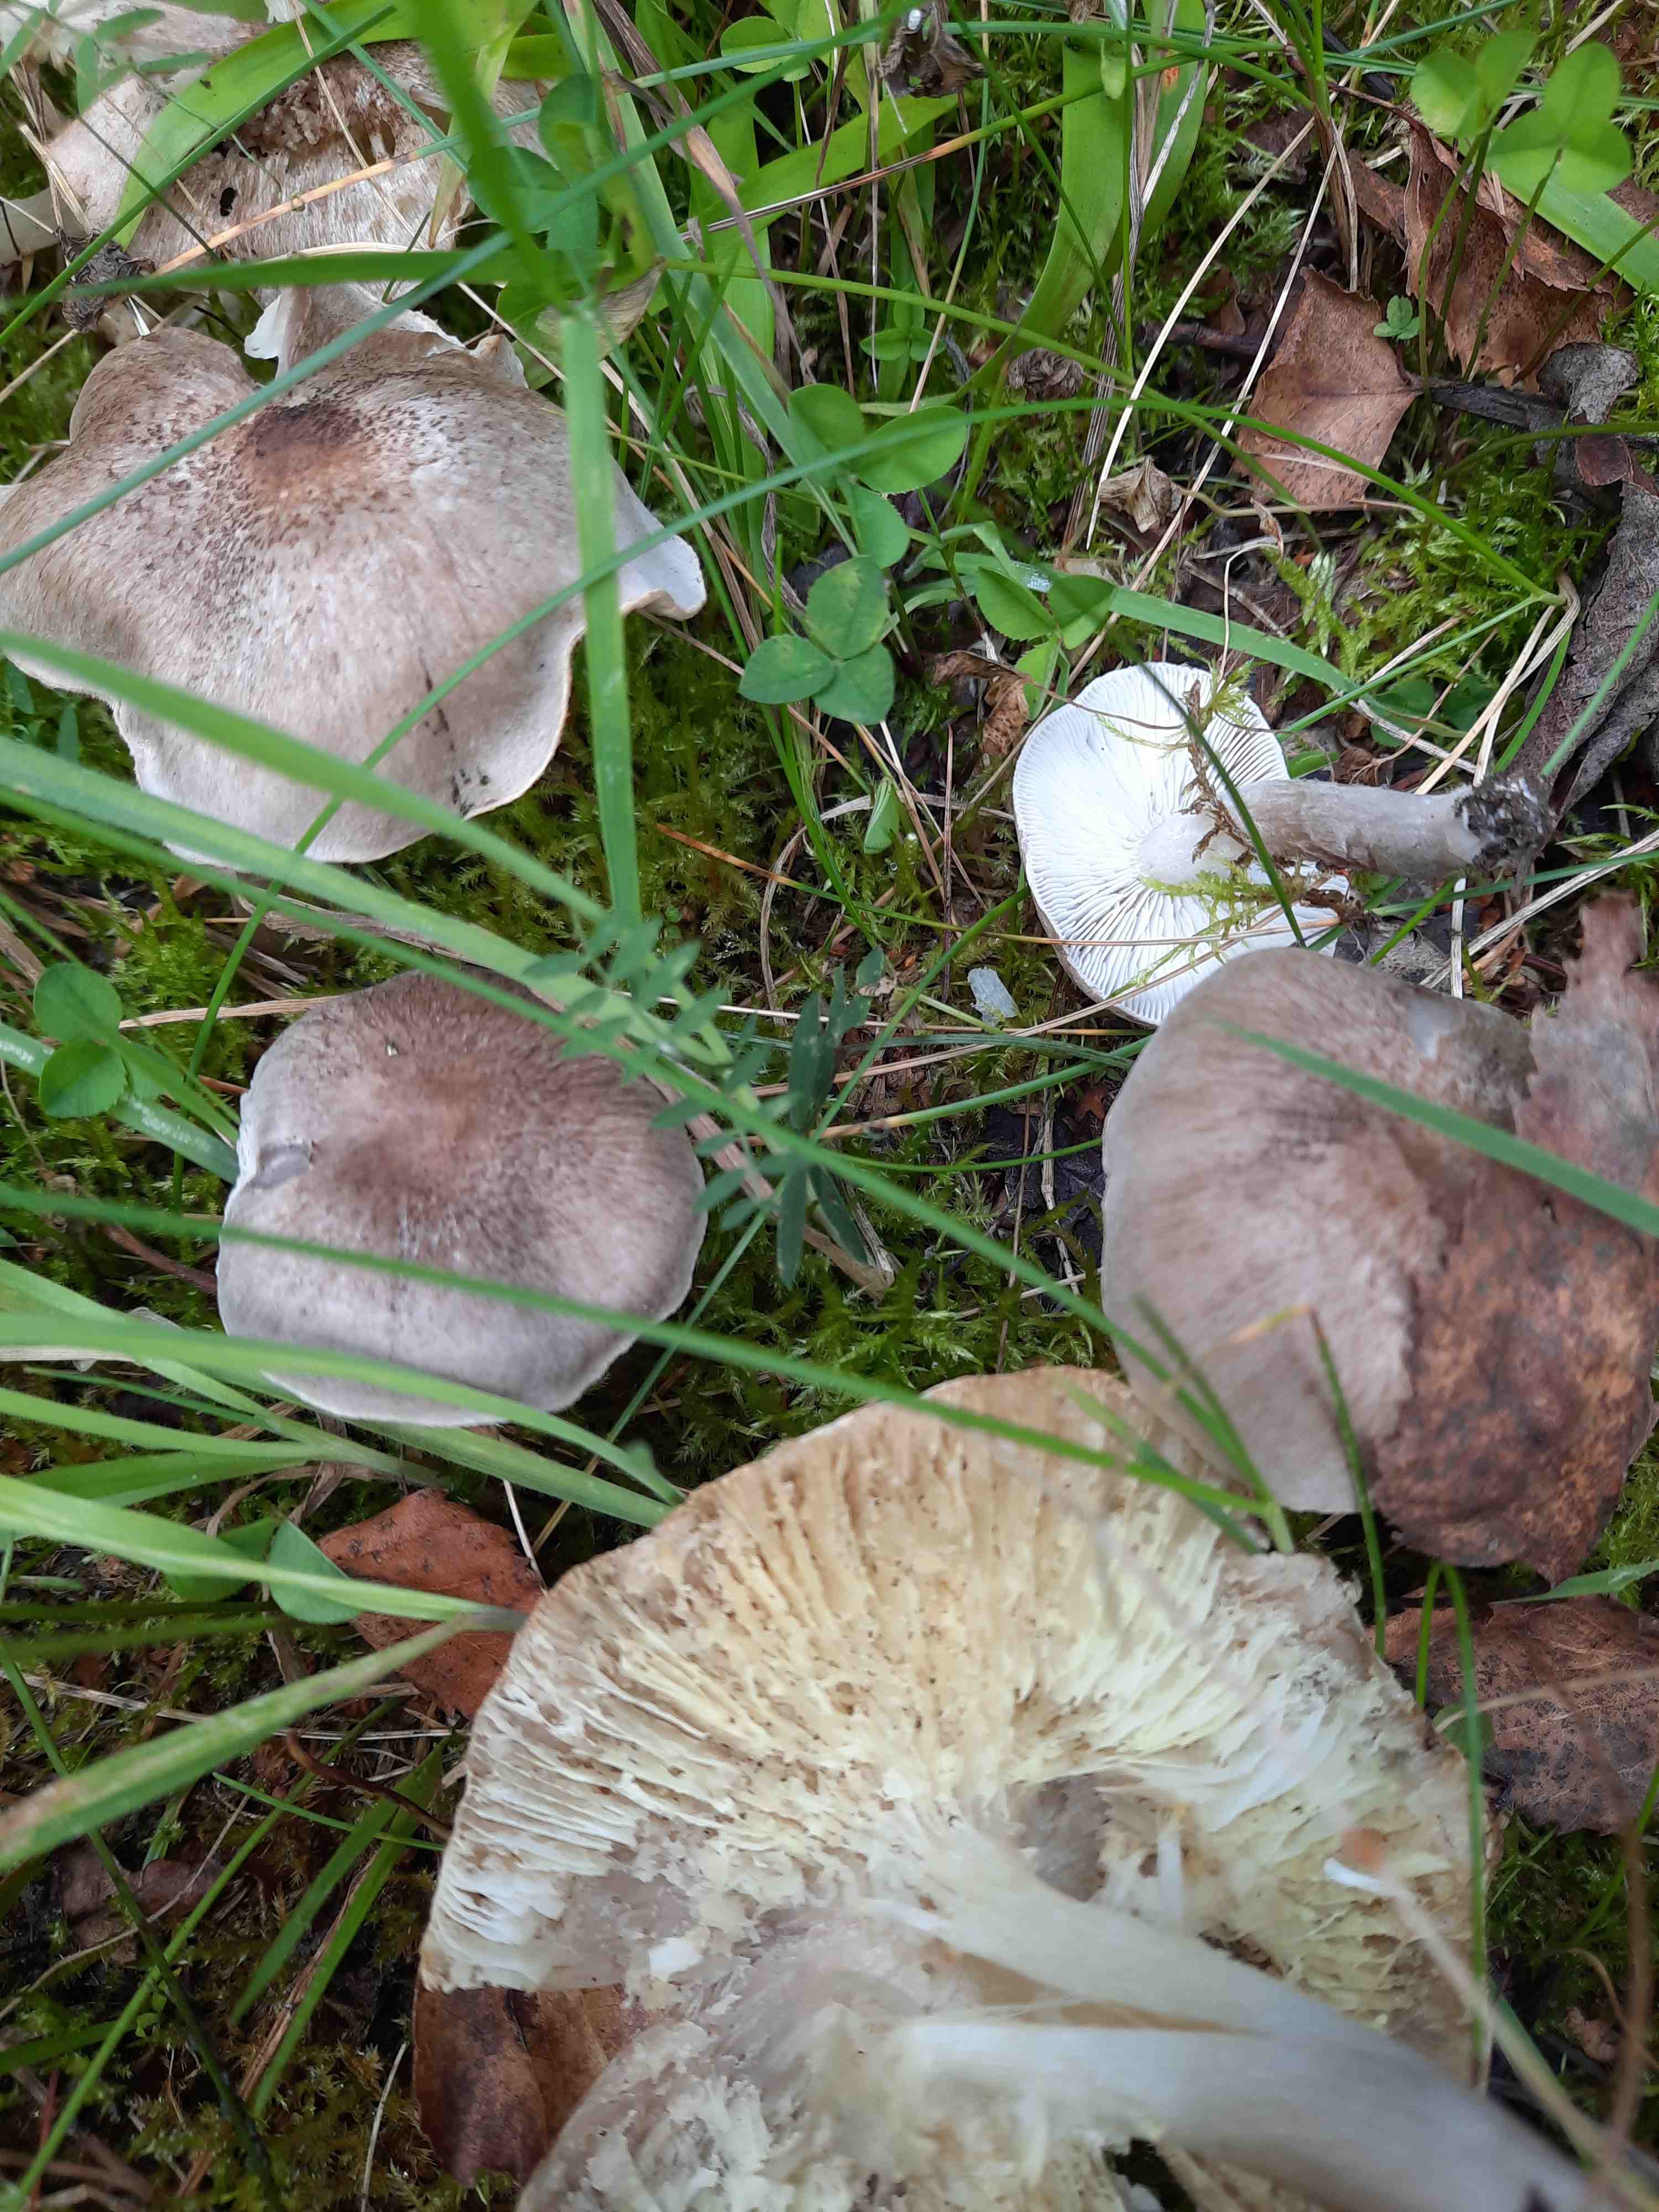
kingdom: Fungi
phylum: Basidiomycota
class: Agaricomycetes
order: Agaricales
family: Tricholomataceae
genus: Tricholoma
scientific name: Tricholoma scalpturatum
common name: gulplettet ridderhat
